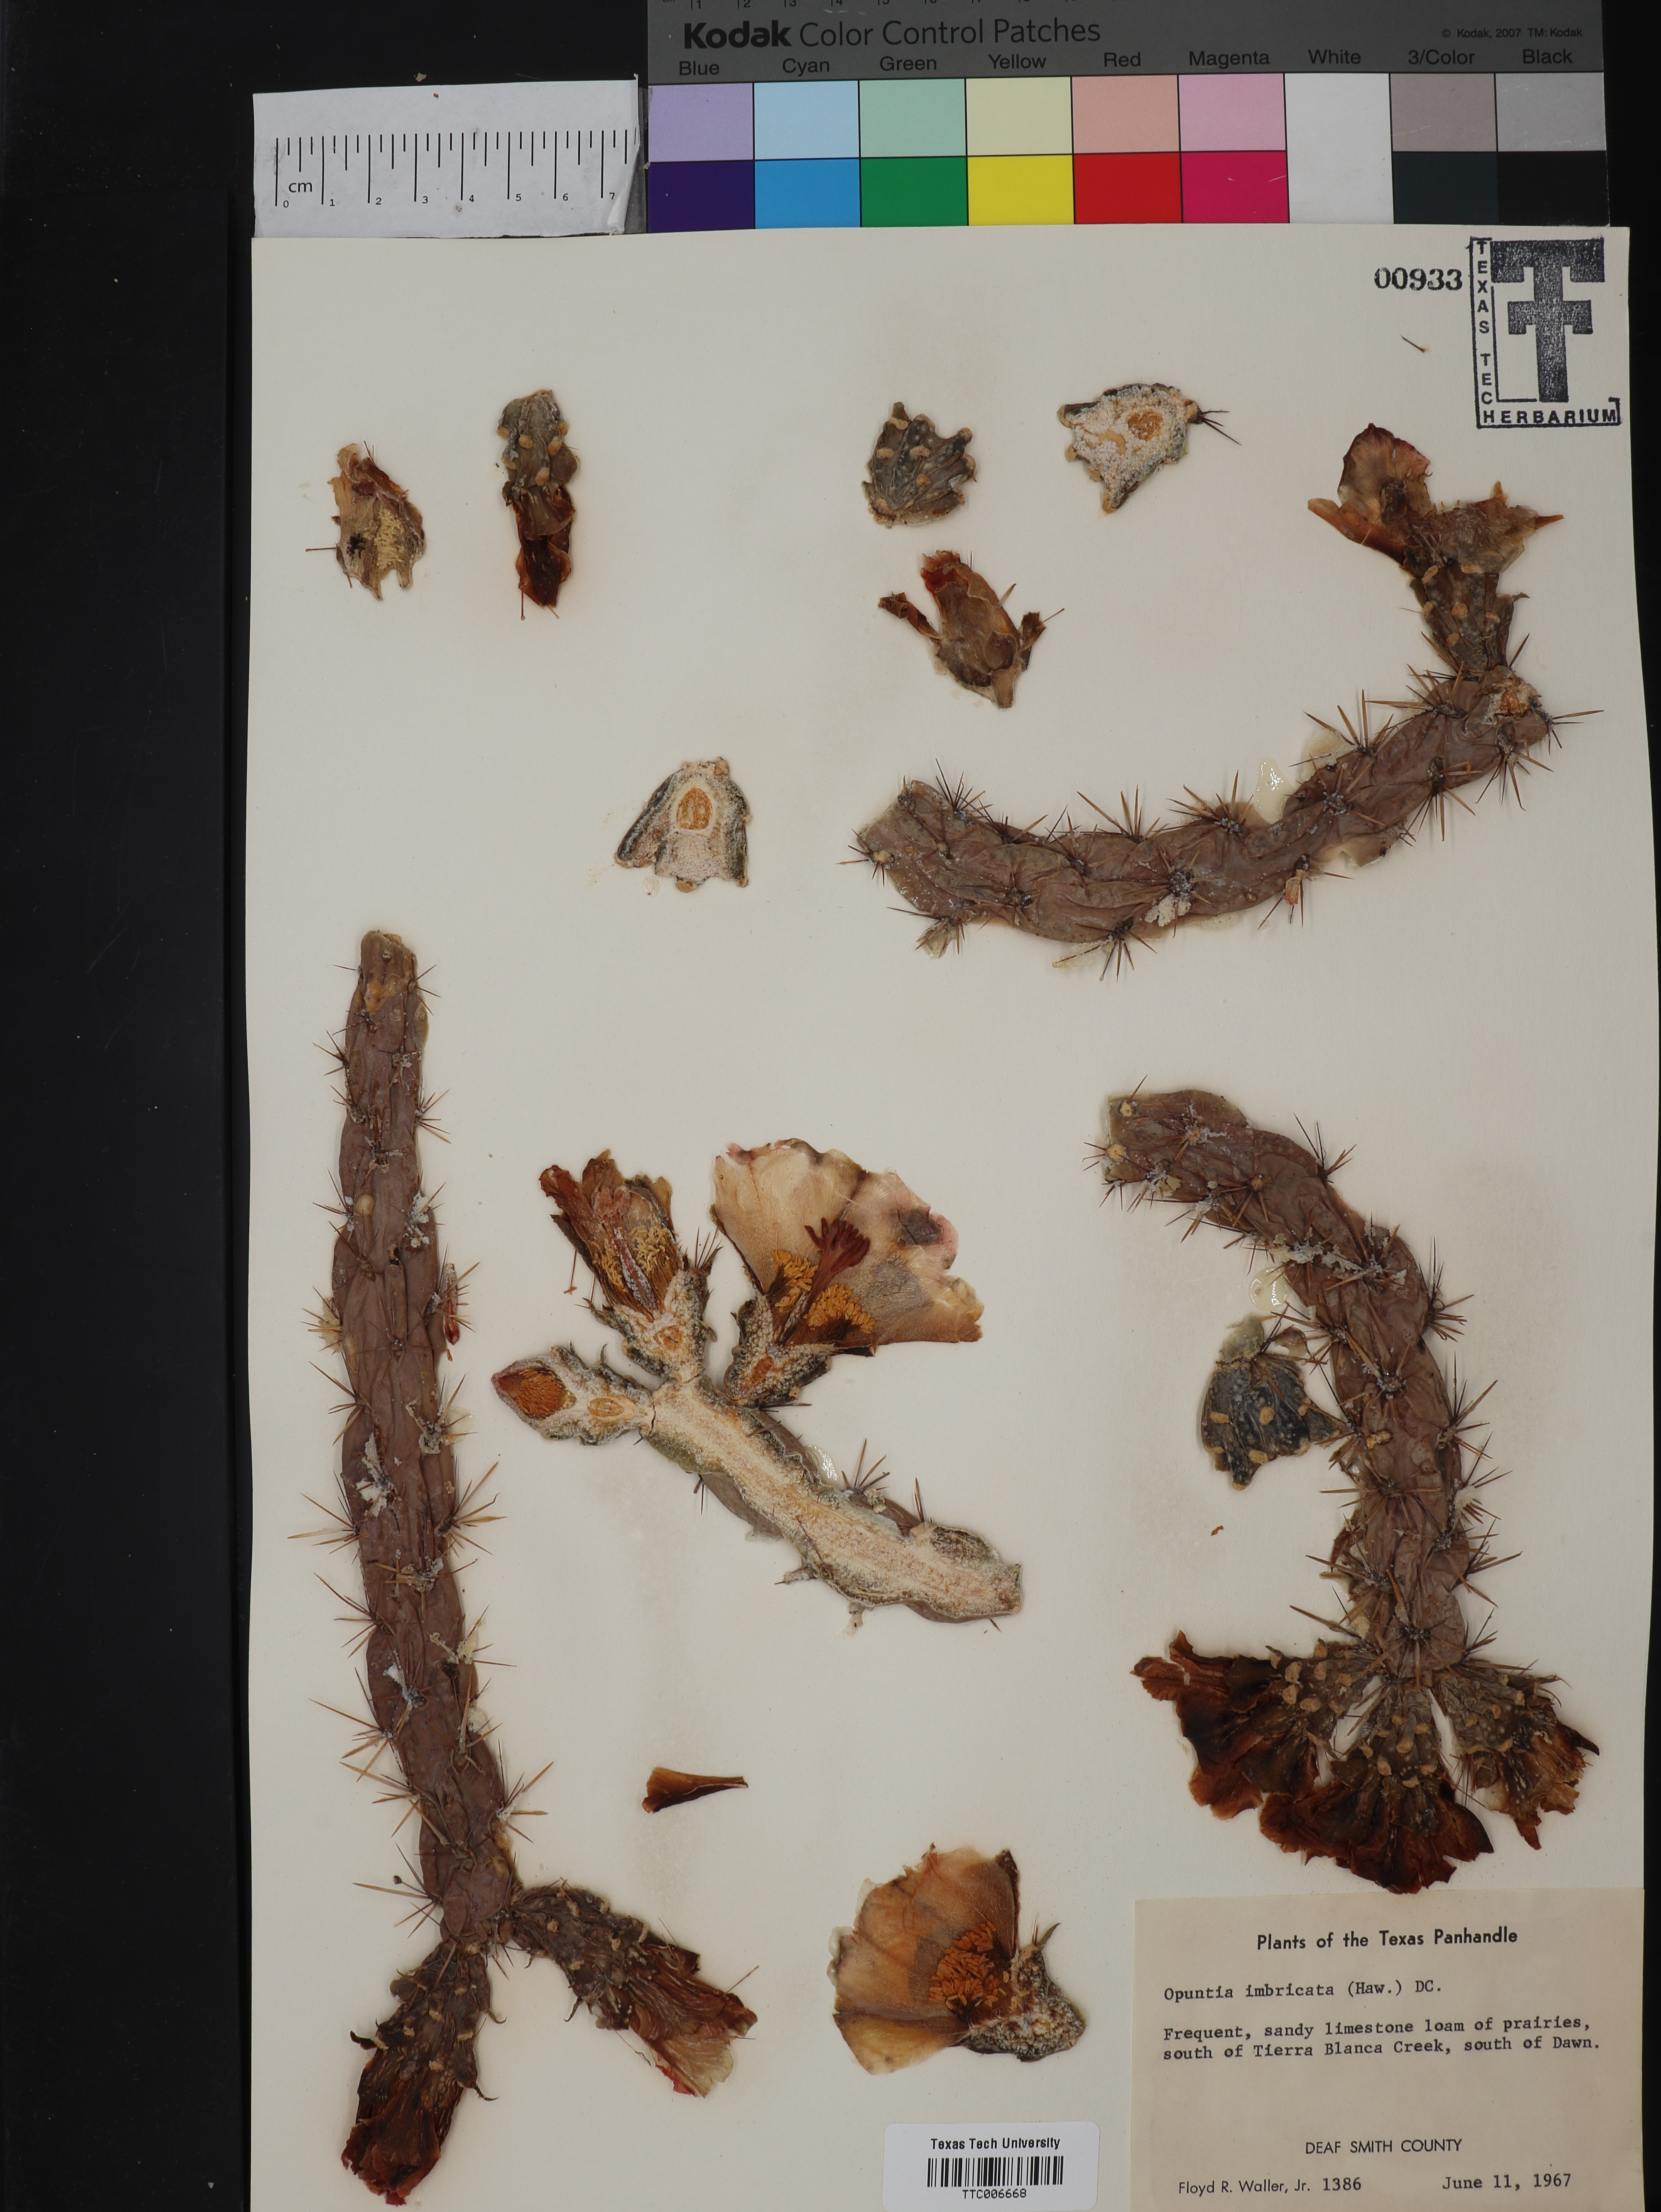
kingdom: Plantae
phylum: Tracheophyta
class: Magnoliopsida
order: Caryophyllales
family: Cactaceae
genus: Cylindropuntia
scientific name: Cylindropuntia imbricata
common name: Candelabrum cactus
